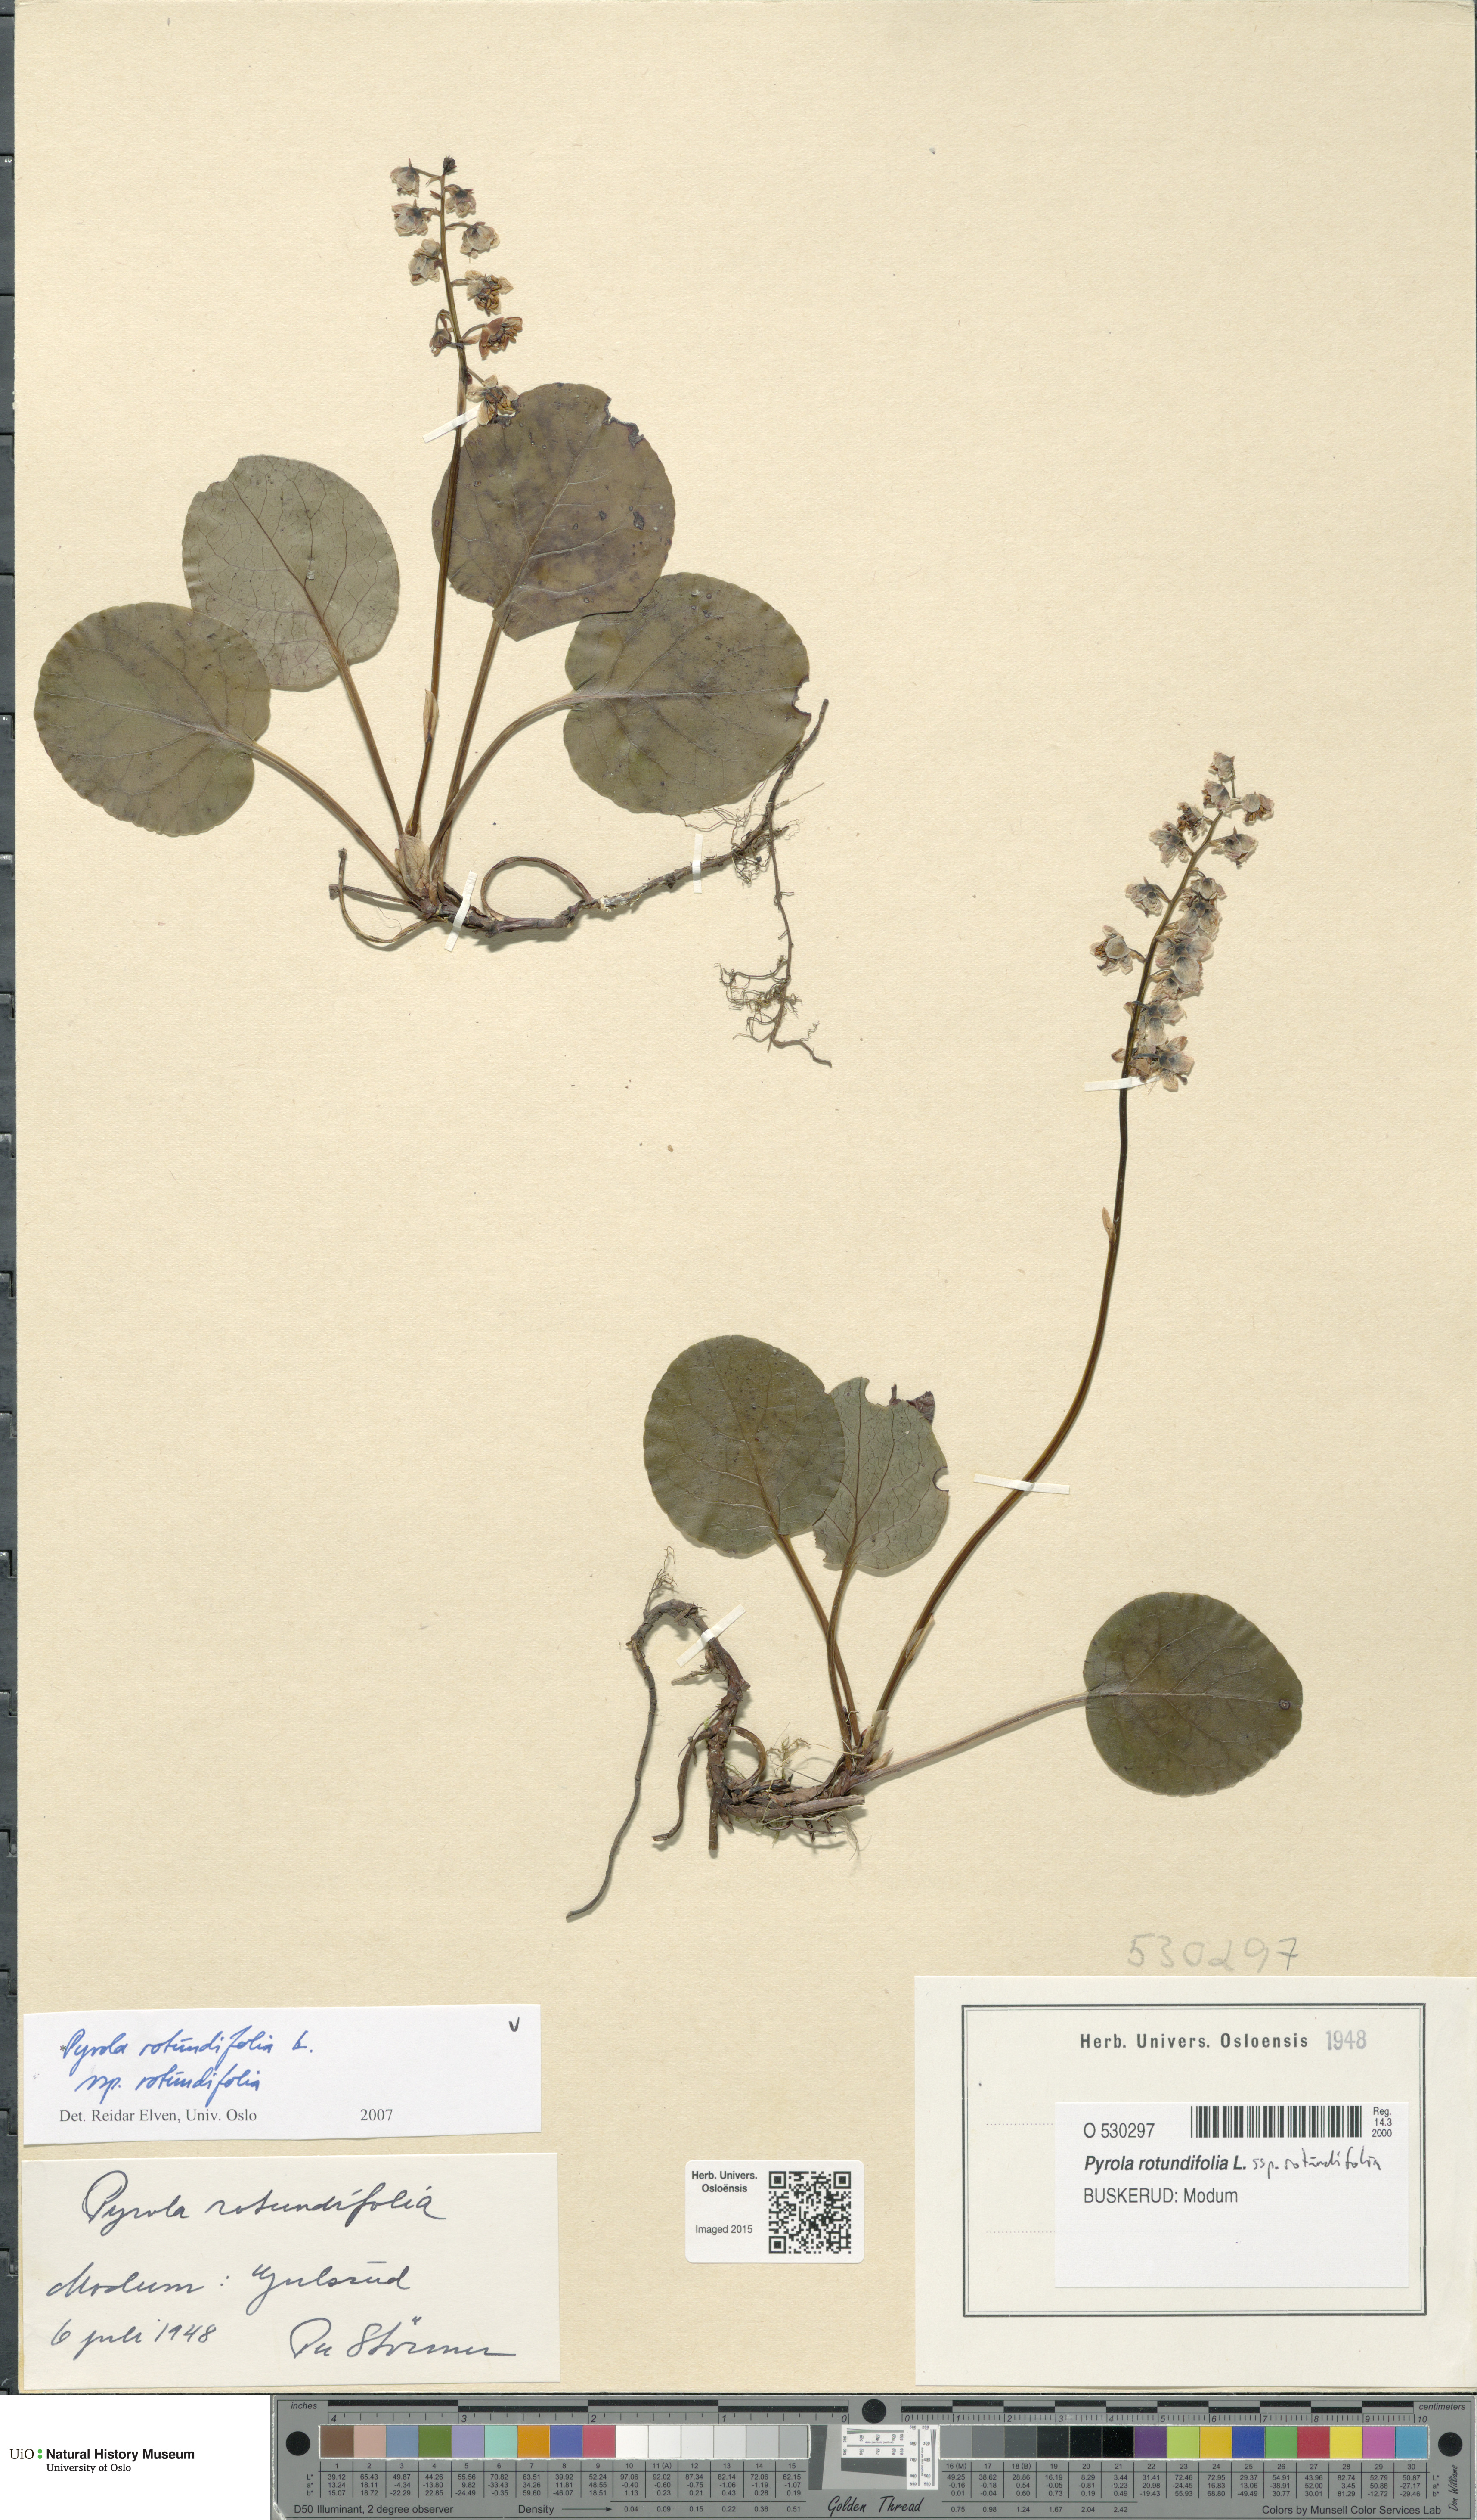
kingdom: Plantae
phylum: Tracheophyta
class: Magnoliopsida
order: Ericales
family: Ericaceae
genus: Pyrola
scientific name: Pyrola rotundifolia
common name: Round-leaved wintergreen
